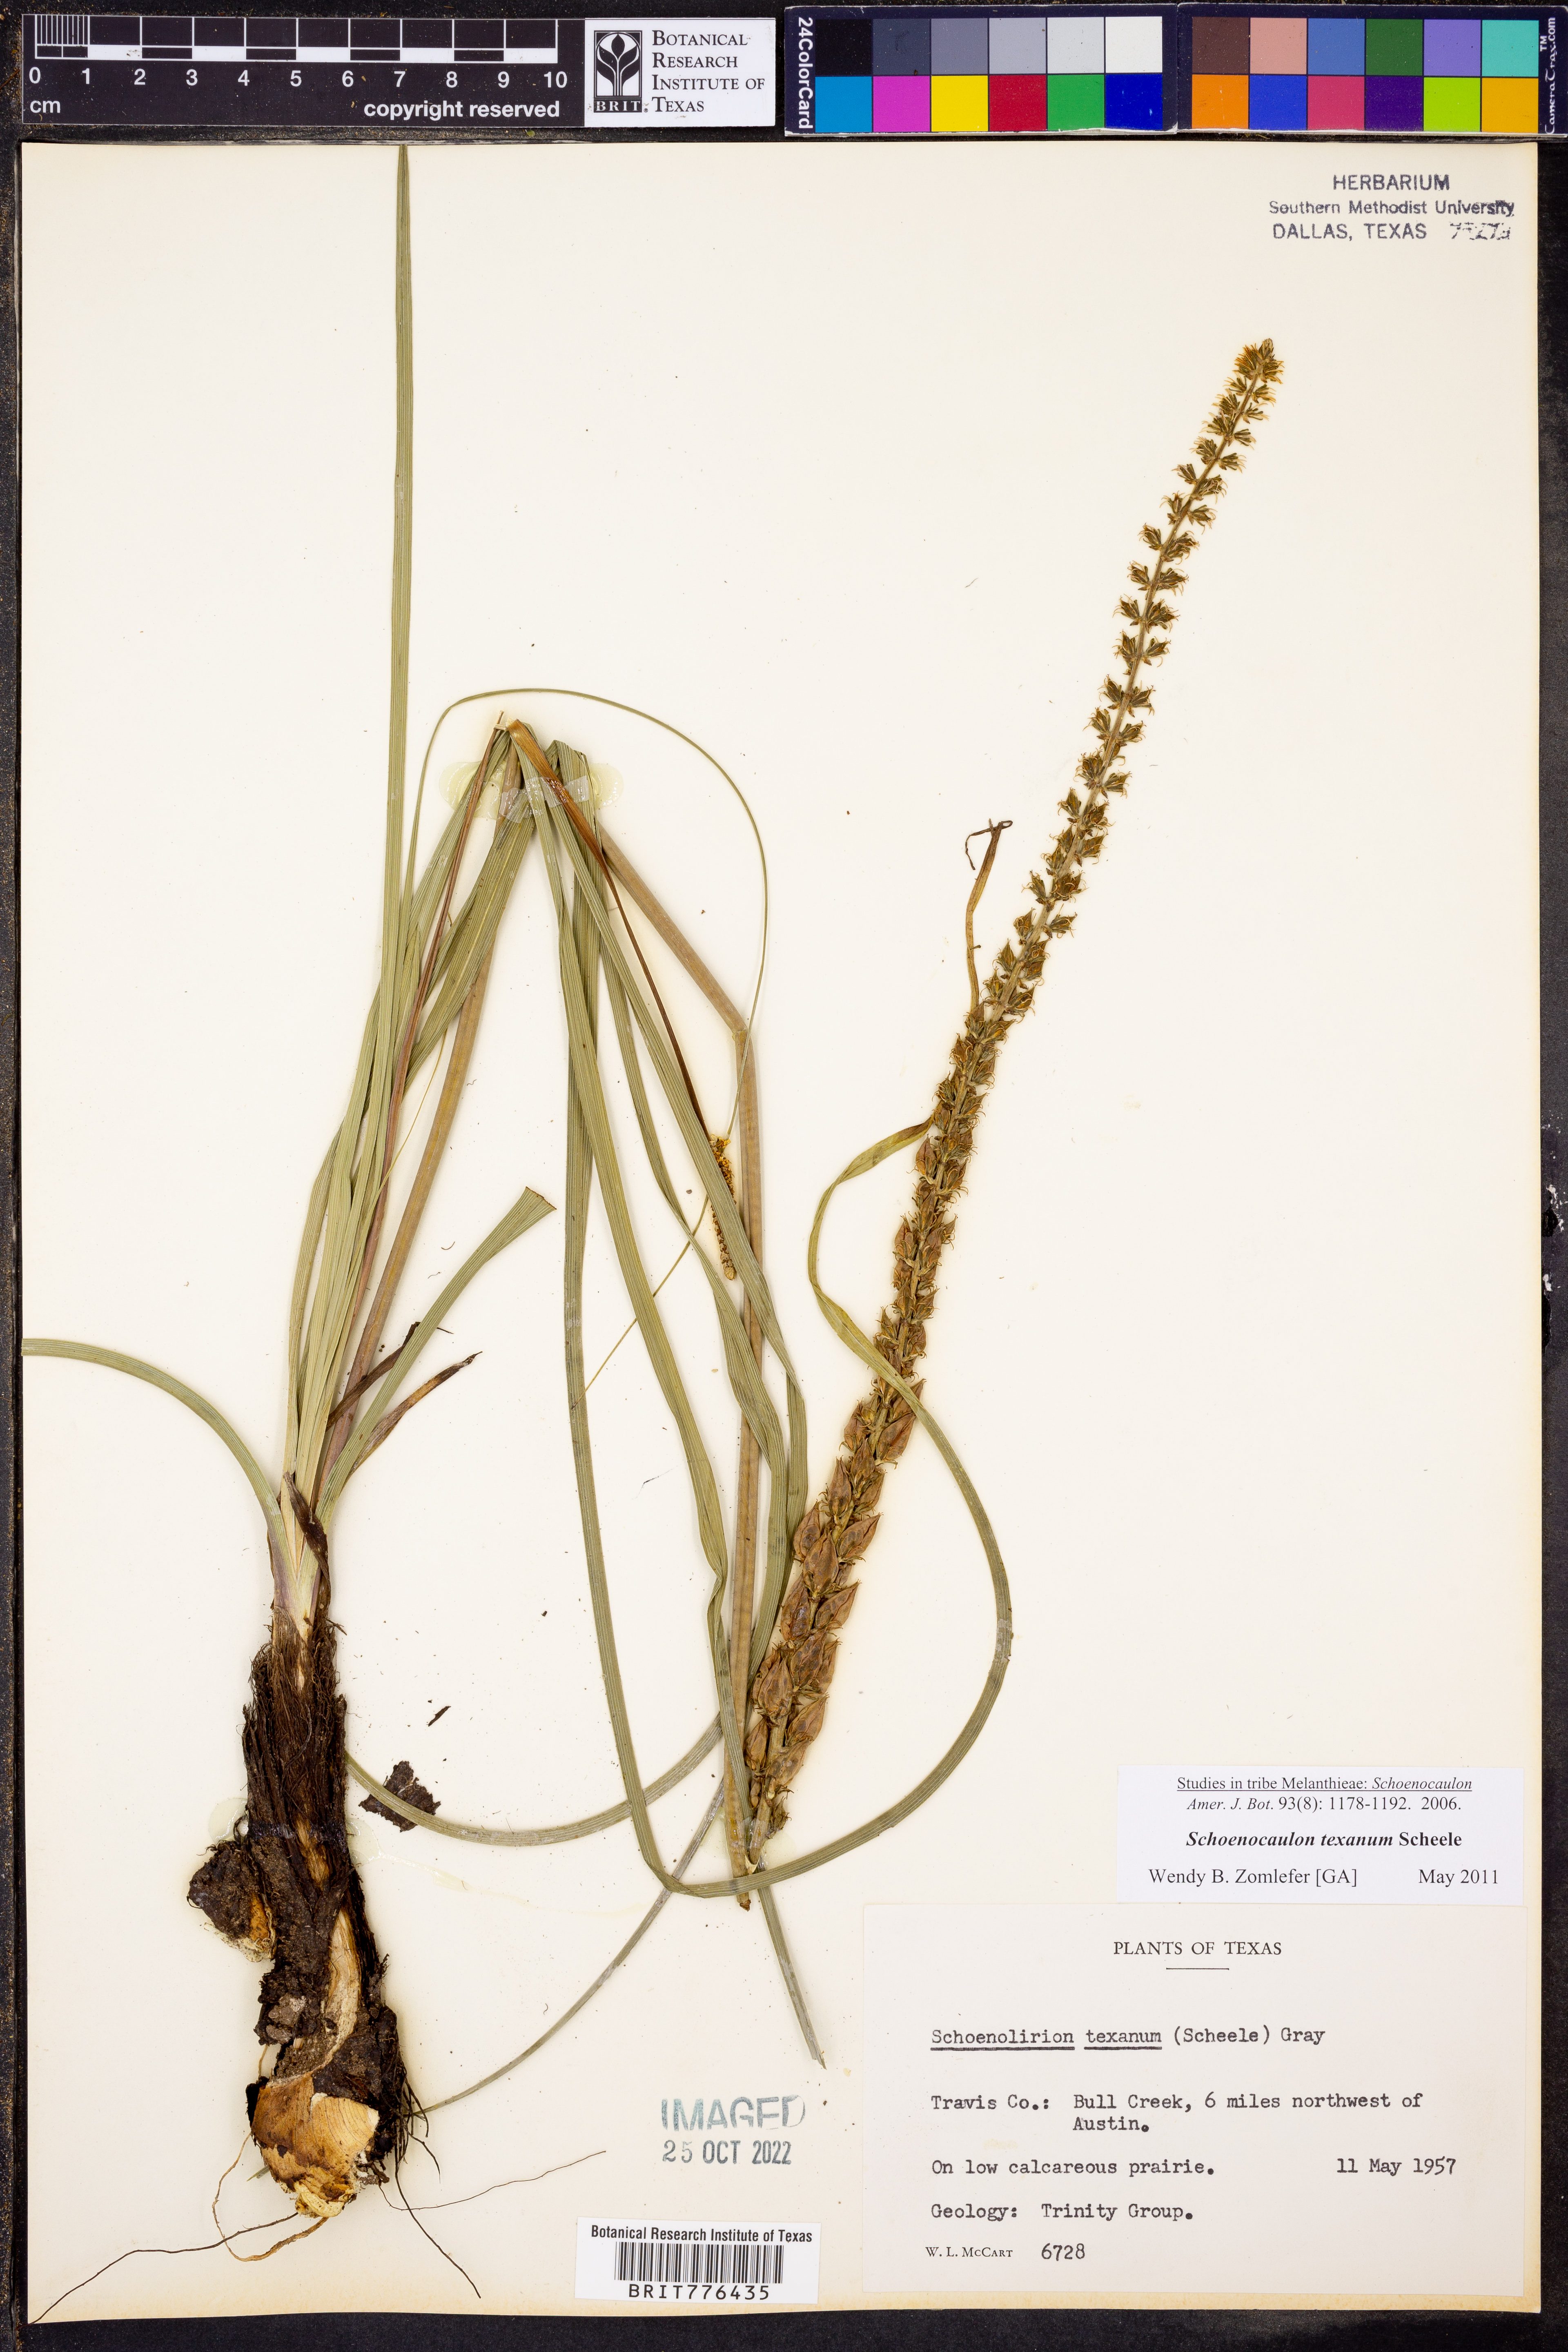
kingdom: Plantae
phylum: Tracheophyta
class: Liliopsida
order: Liliales
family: Melanthiaceae
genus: Schoenocaulon
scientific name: Schoenocaulon texanum
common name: Texas feather-shank
